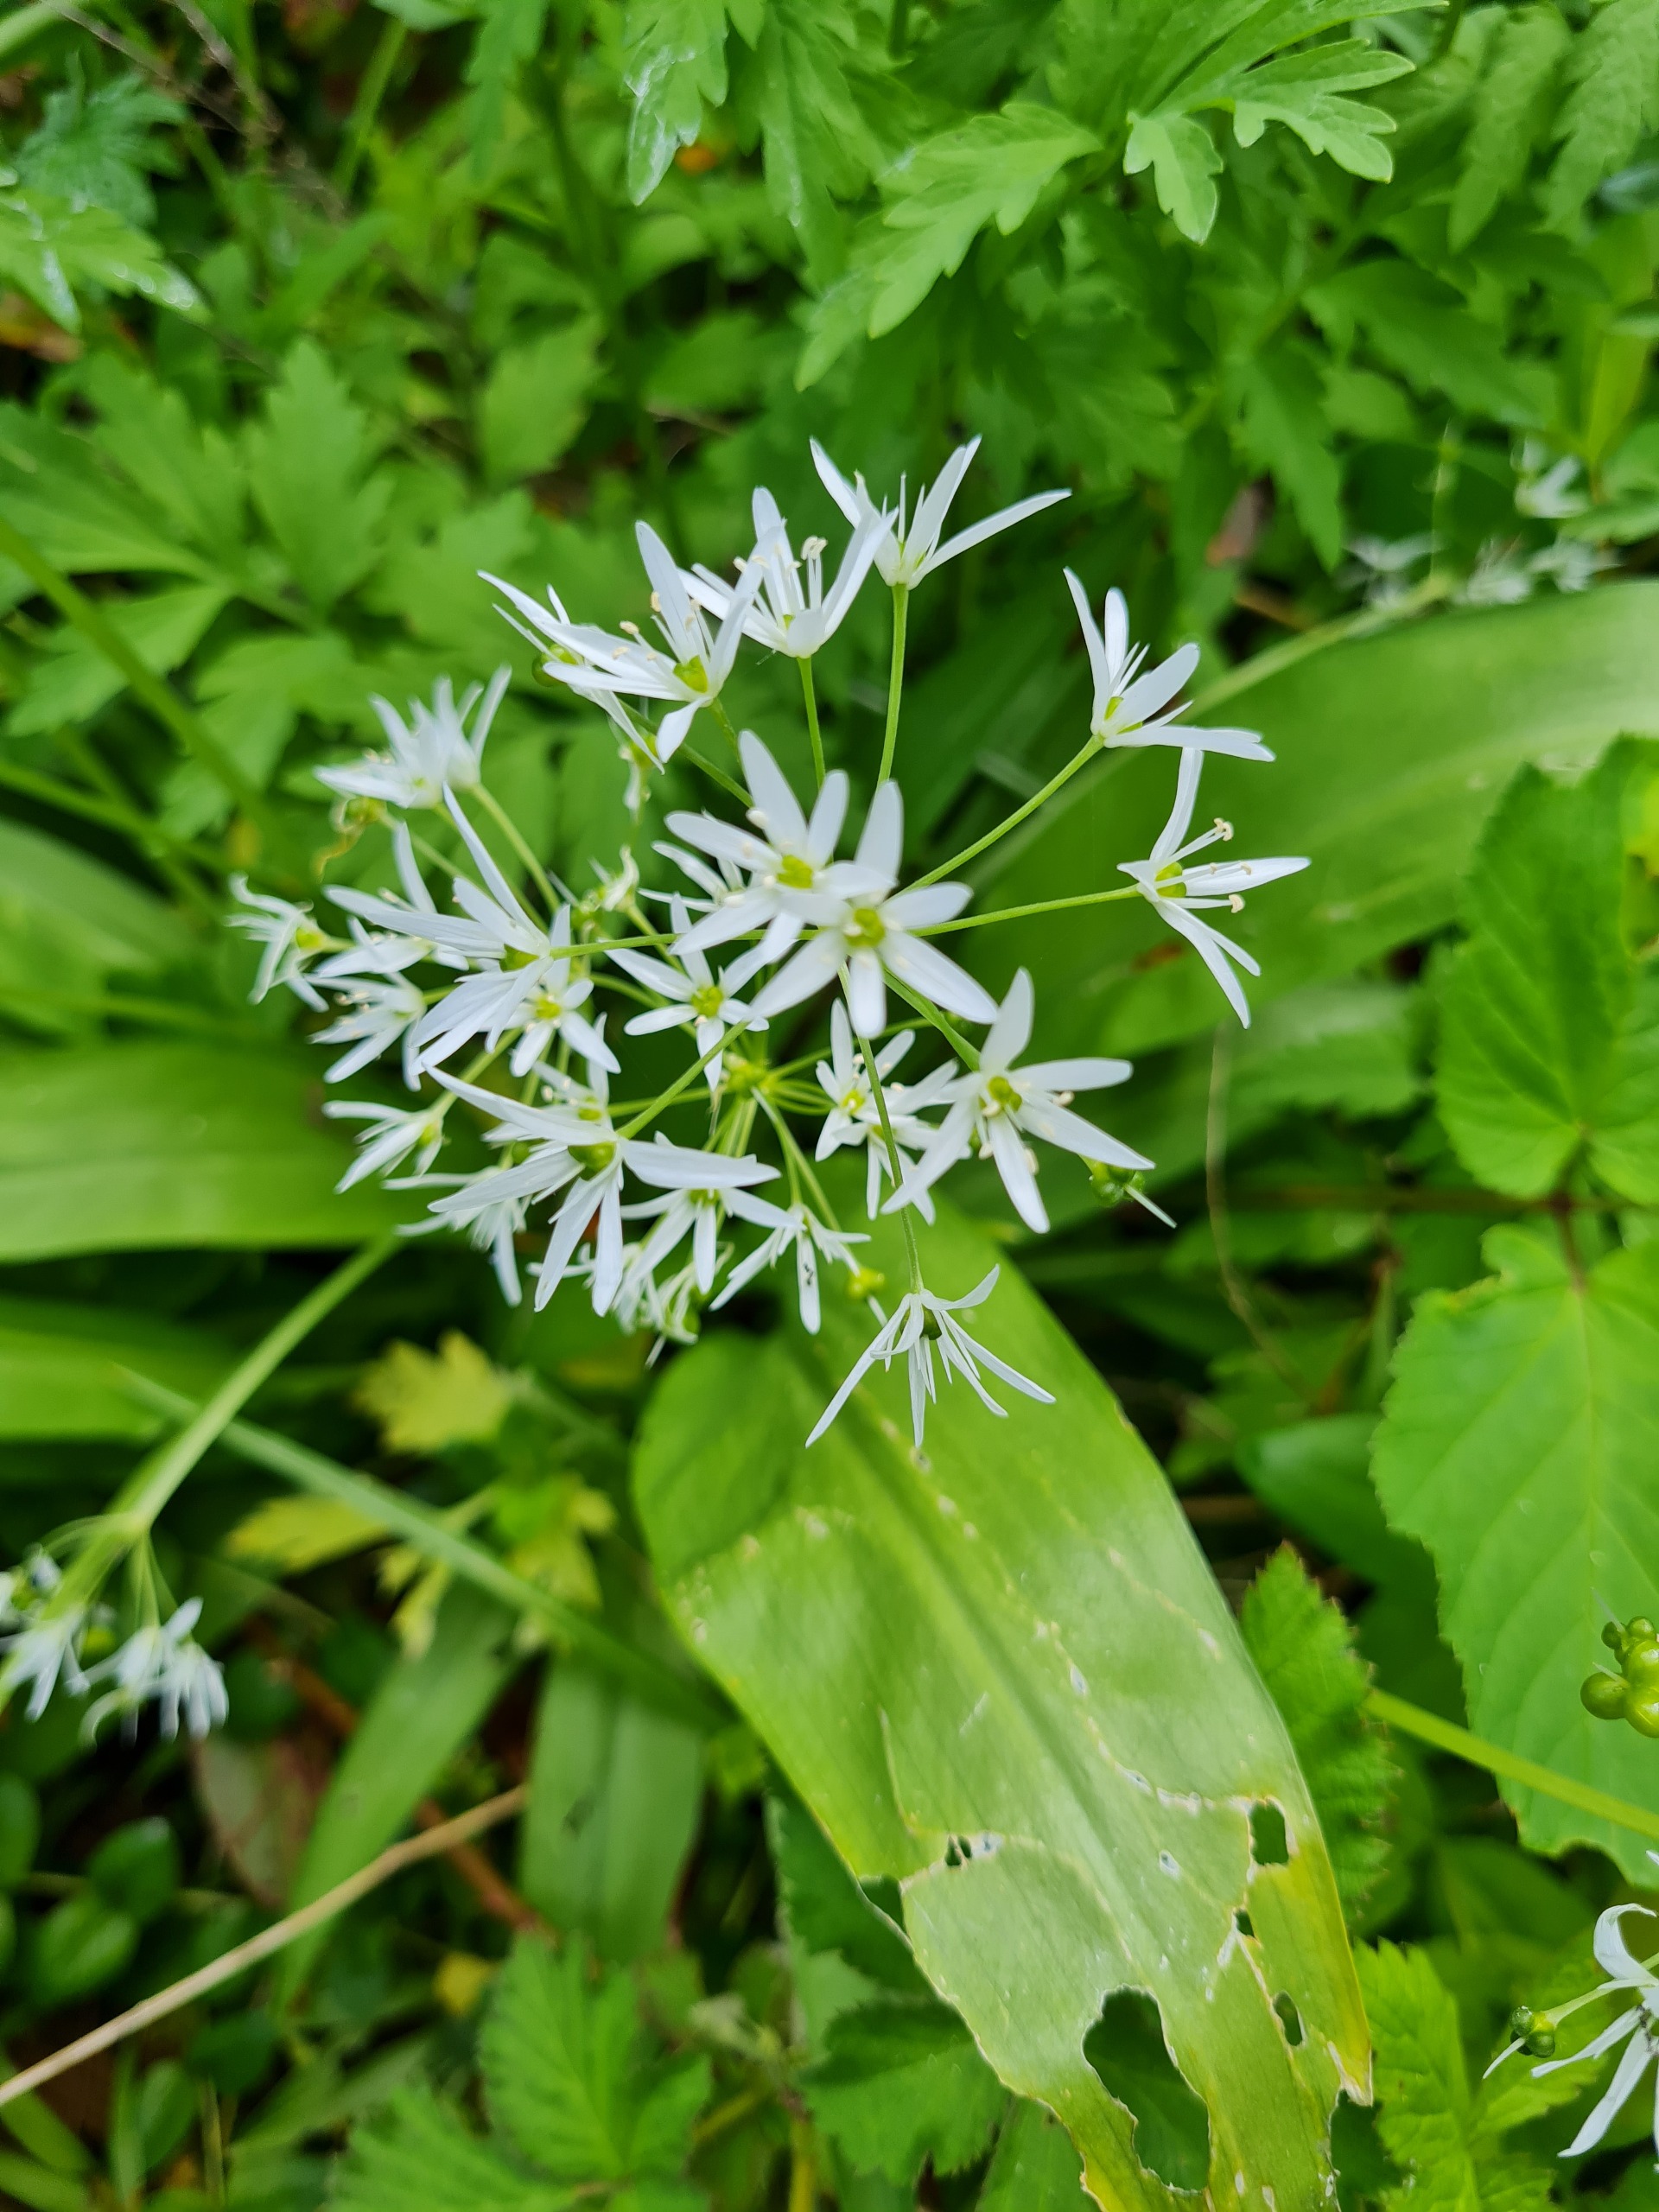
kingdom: Plantae
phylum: Tracheophyta
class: Liliopsida
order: Asparagales
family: Amaryllidaceae
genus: Allium
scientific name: Allium ursinum
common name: Rams-løg
